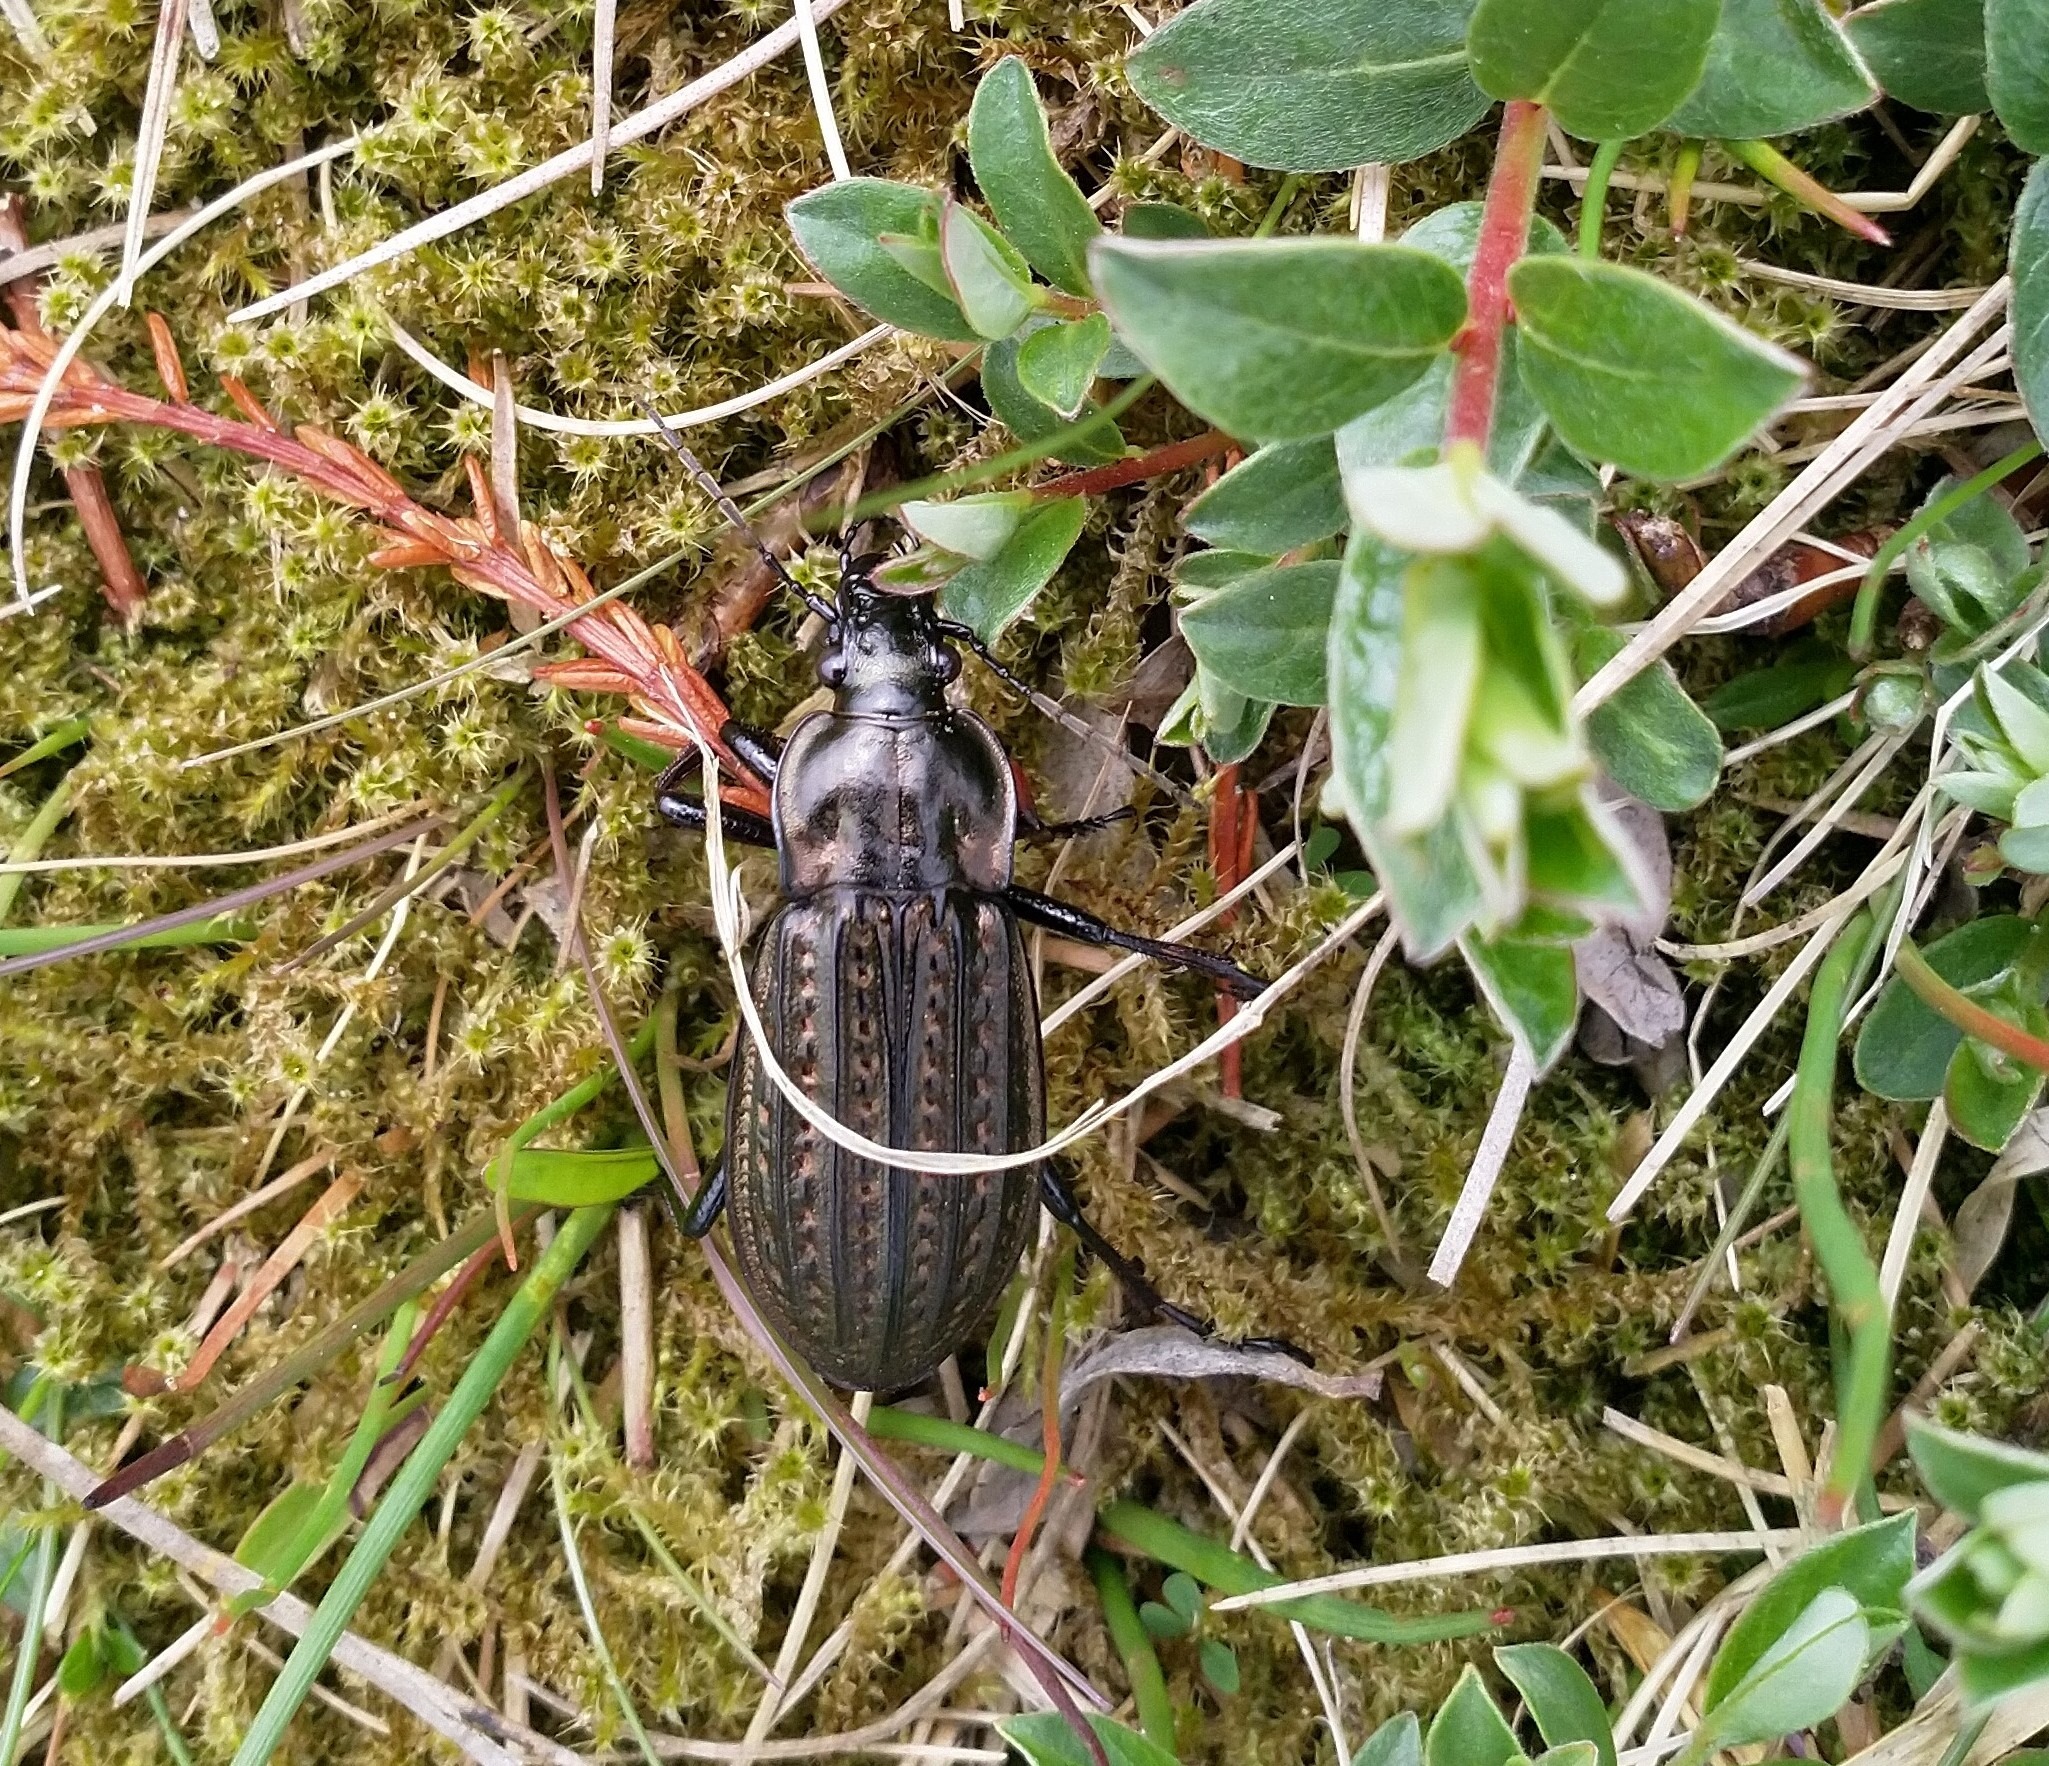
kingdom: Animalia
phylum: Arthropoda
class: Insecta
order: Coleoptera
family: Carabidae
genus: Carabus
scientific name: Carabus clatratus
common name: Dyndløber
